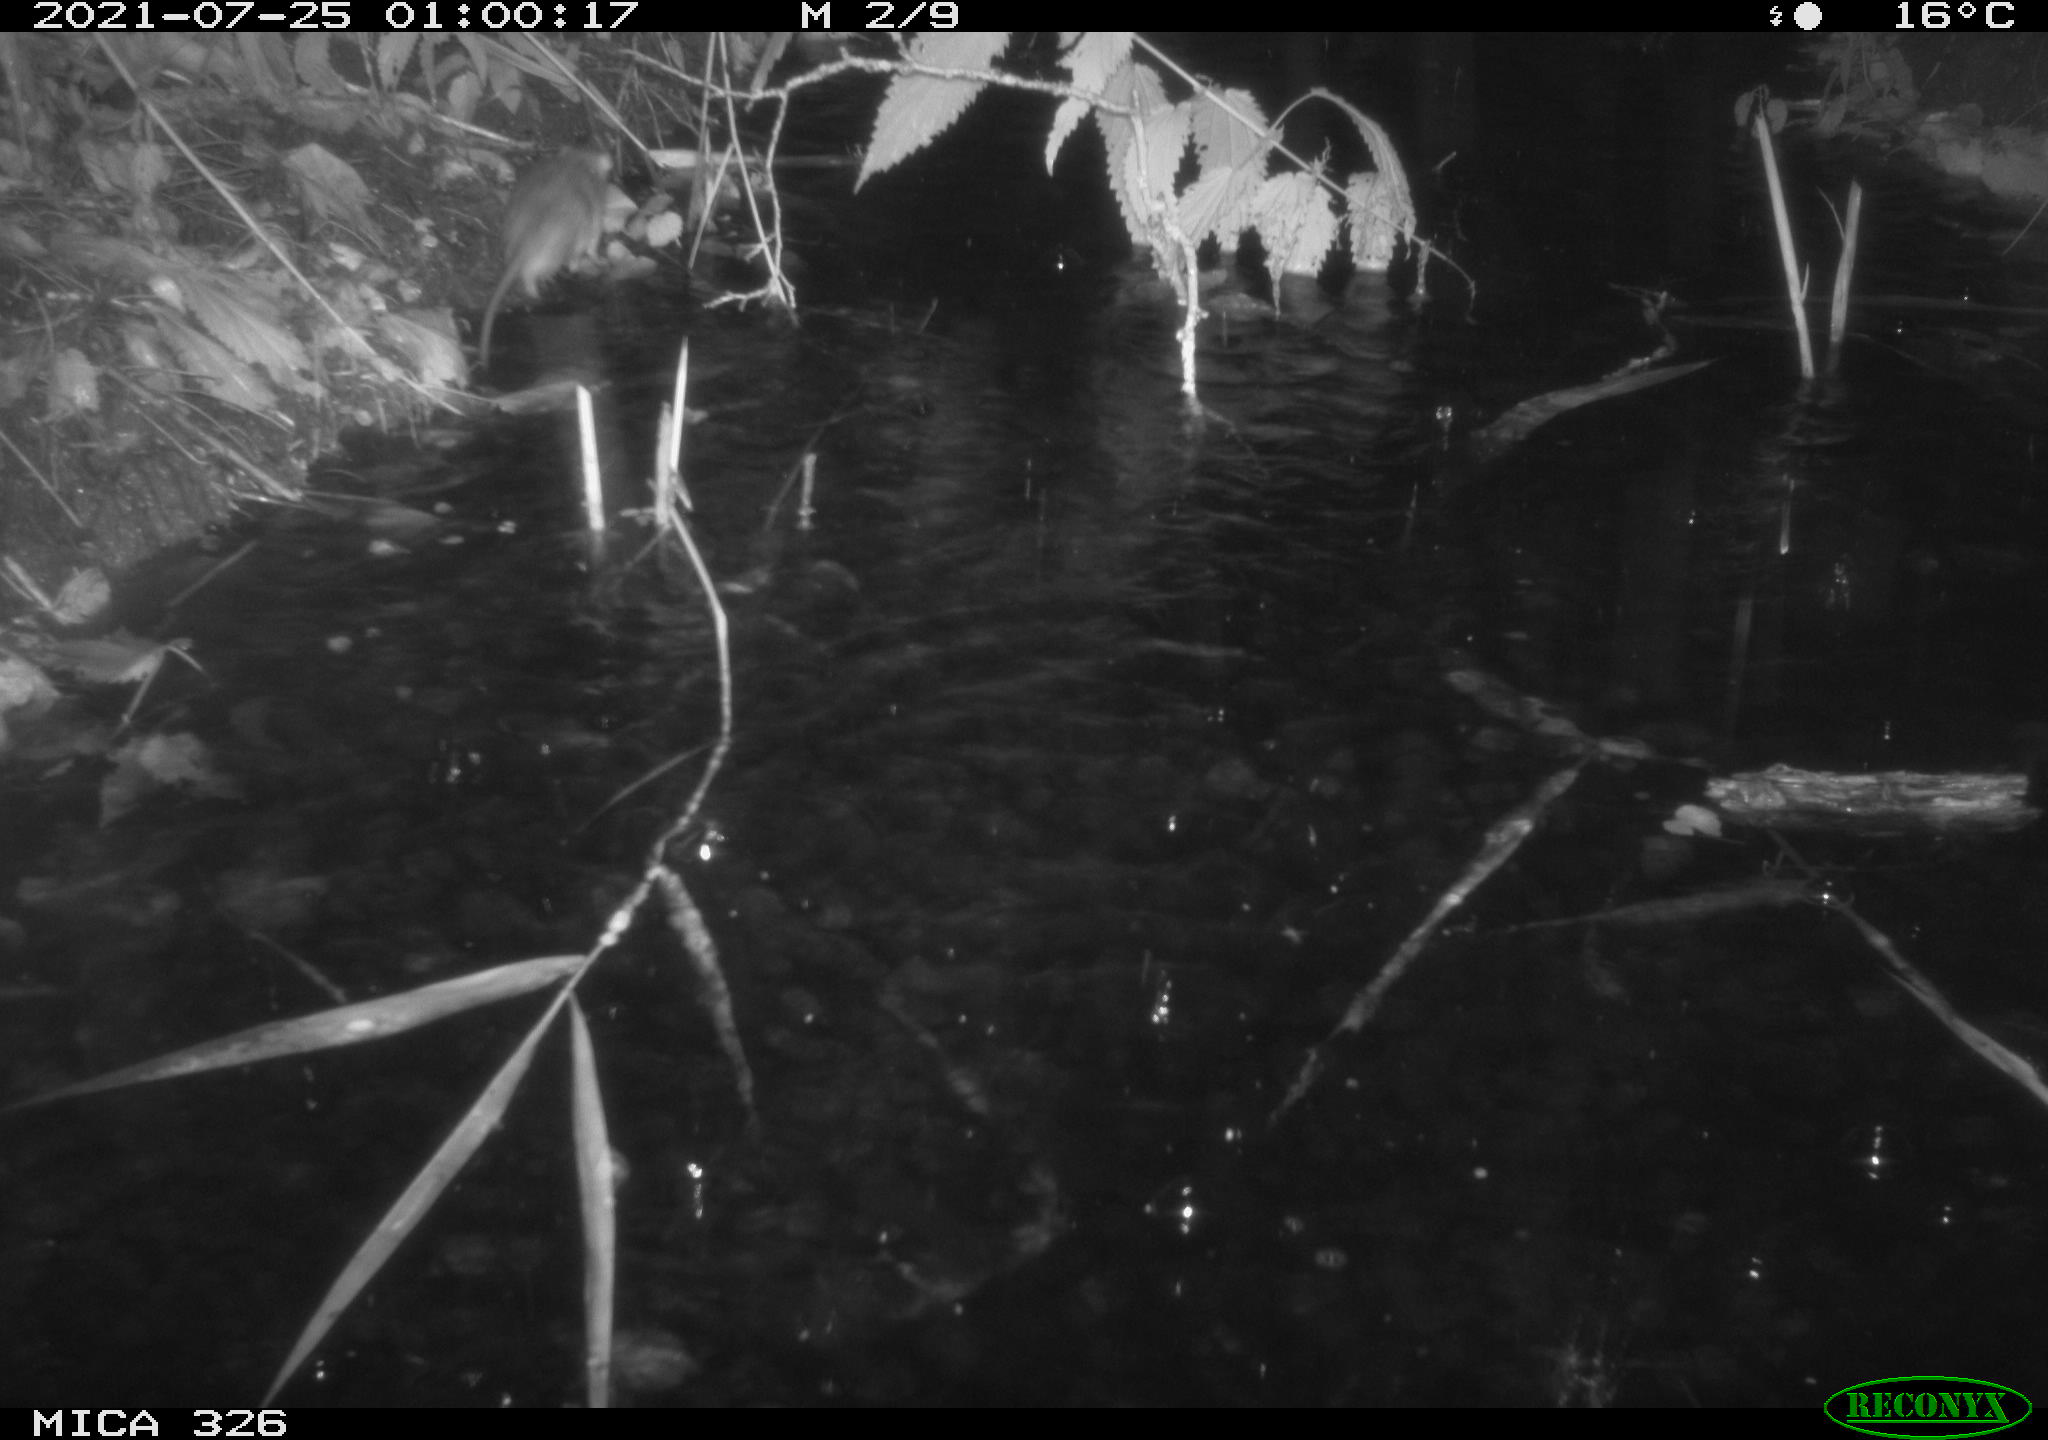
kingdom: Animalia
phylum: Chordata
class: Mammalia
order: Rodentia
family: Muridae
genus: Rattus
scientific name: Rattus norvegicus
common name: Brown rat
